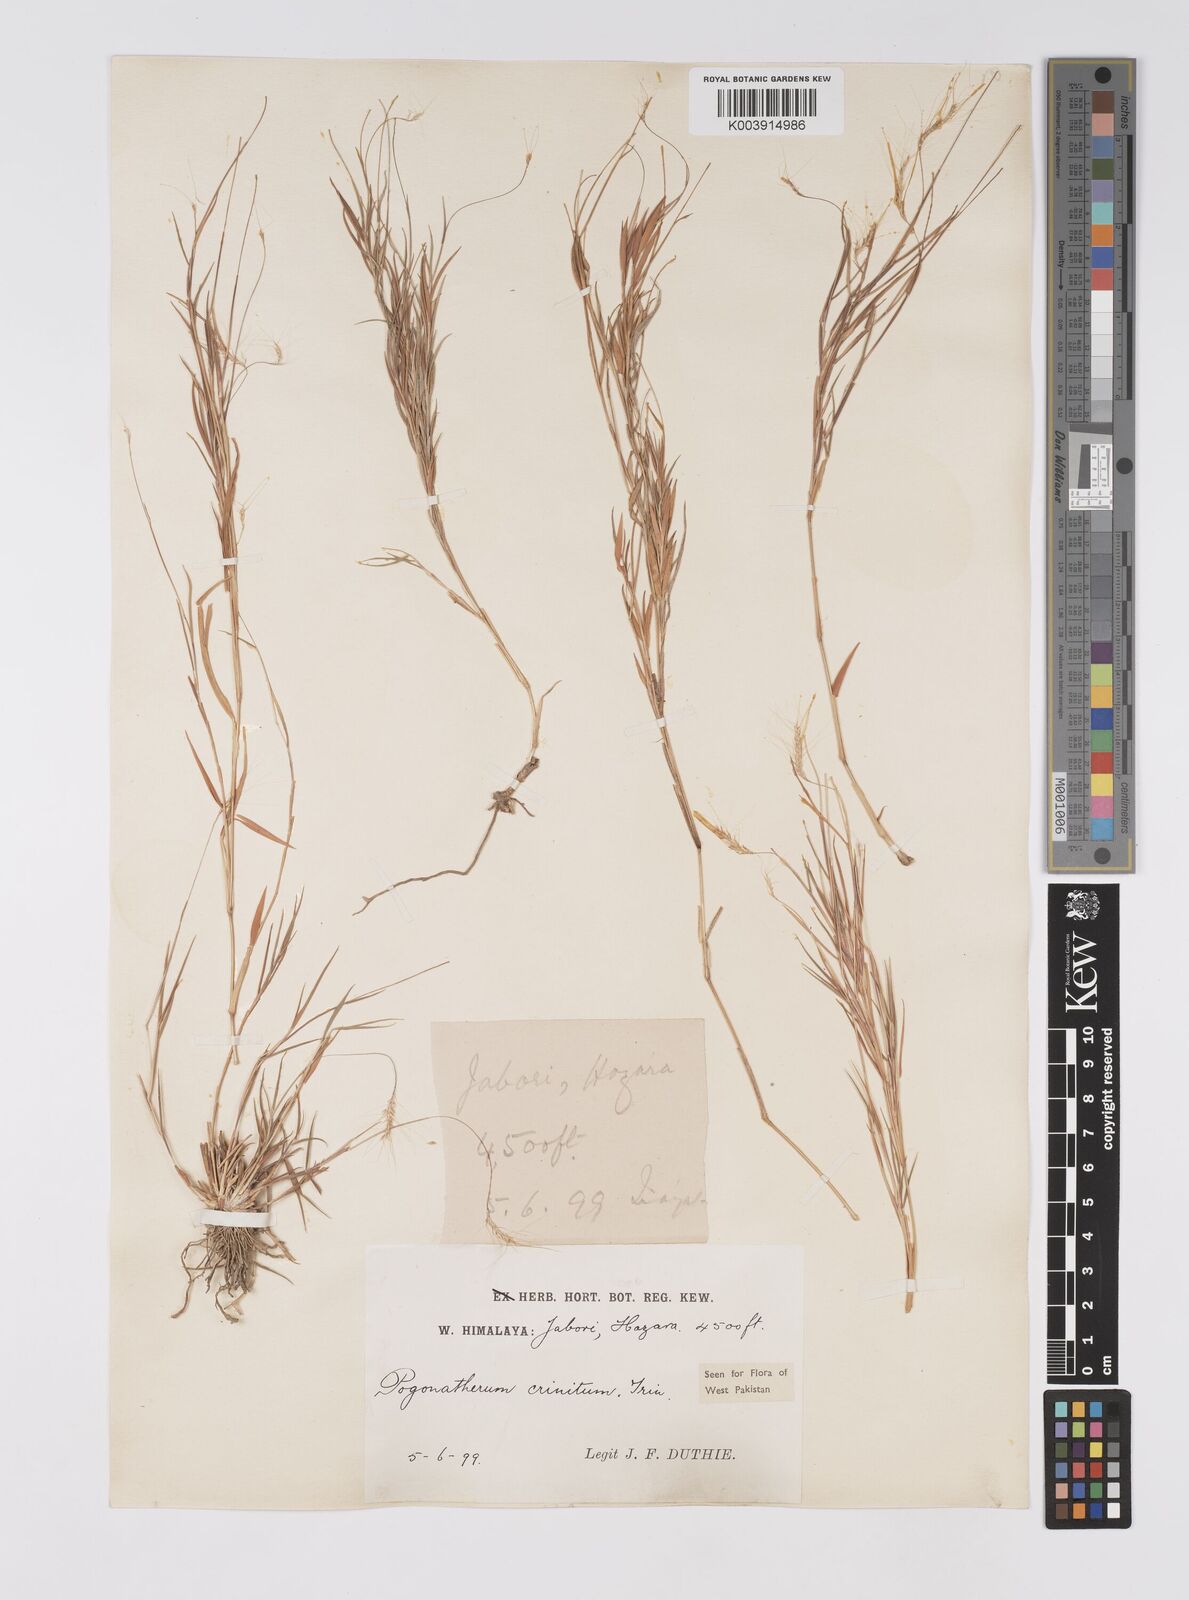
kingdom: Plantae
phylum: Tracheophyta
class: Liliopsida
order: Poales
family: Poaceae
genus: Pogonatherum
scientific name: Pogonatherum crinitum
